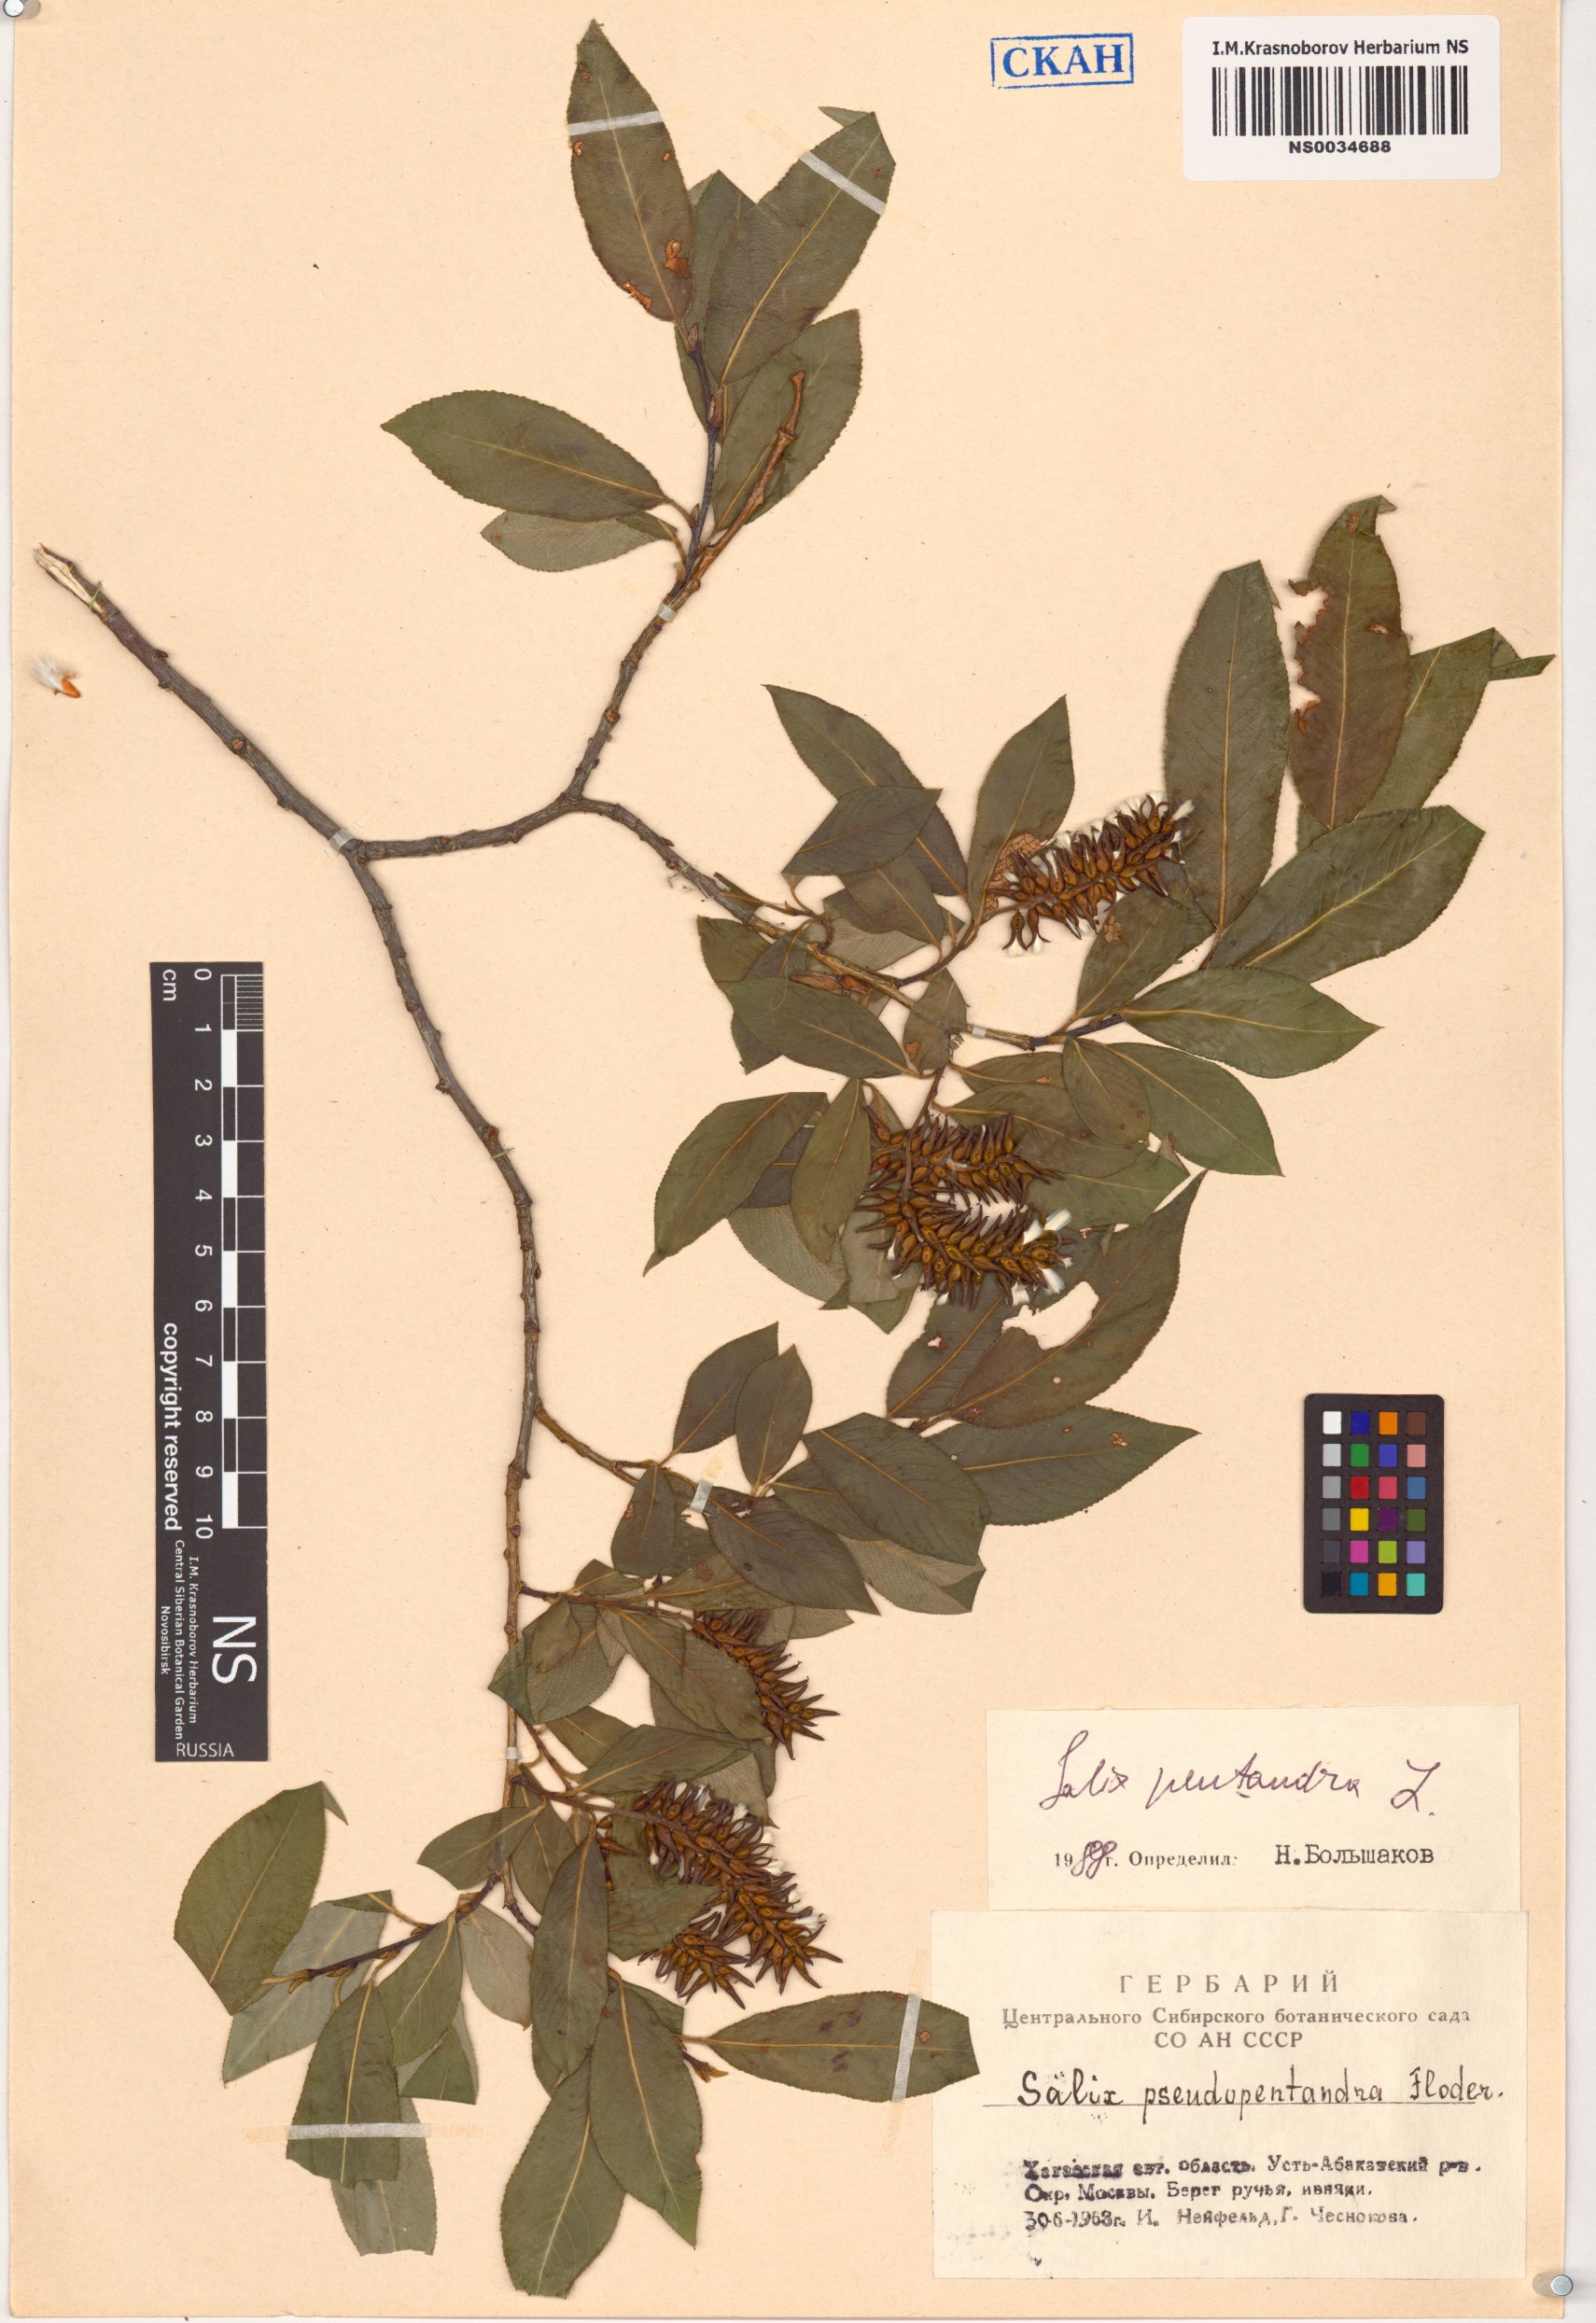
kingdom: Plantae
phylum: Tracheophyta
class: Magnoliopsida
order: Malpighiales
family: Salicaceae
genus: Salix
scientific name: Salix pseudopentandra
